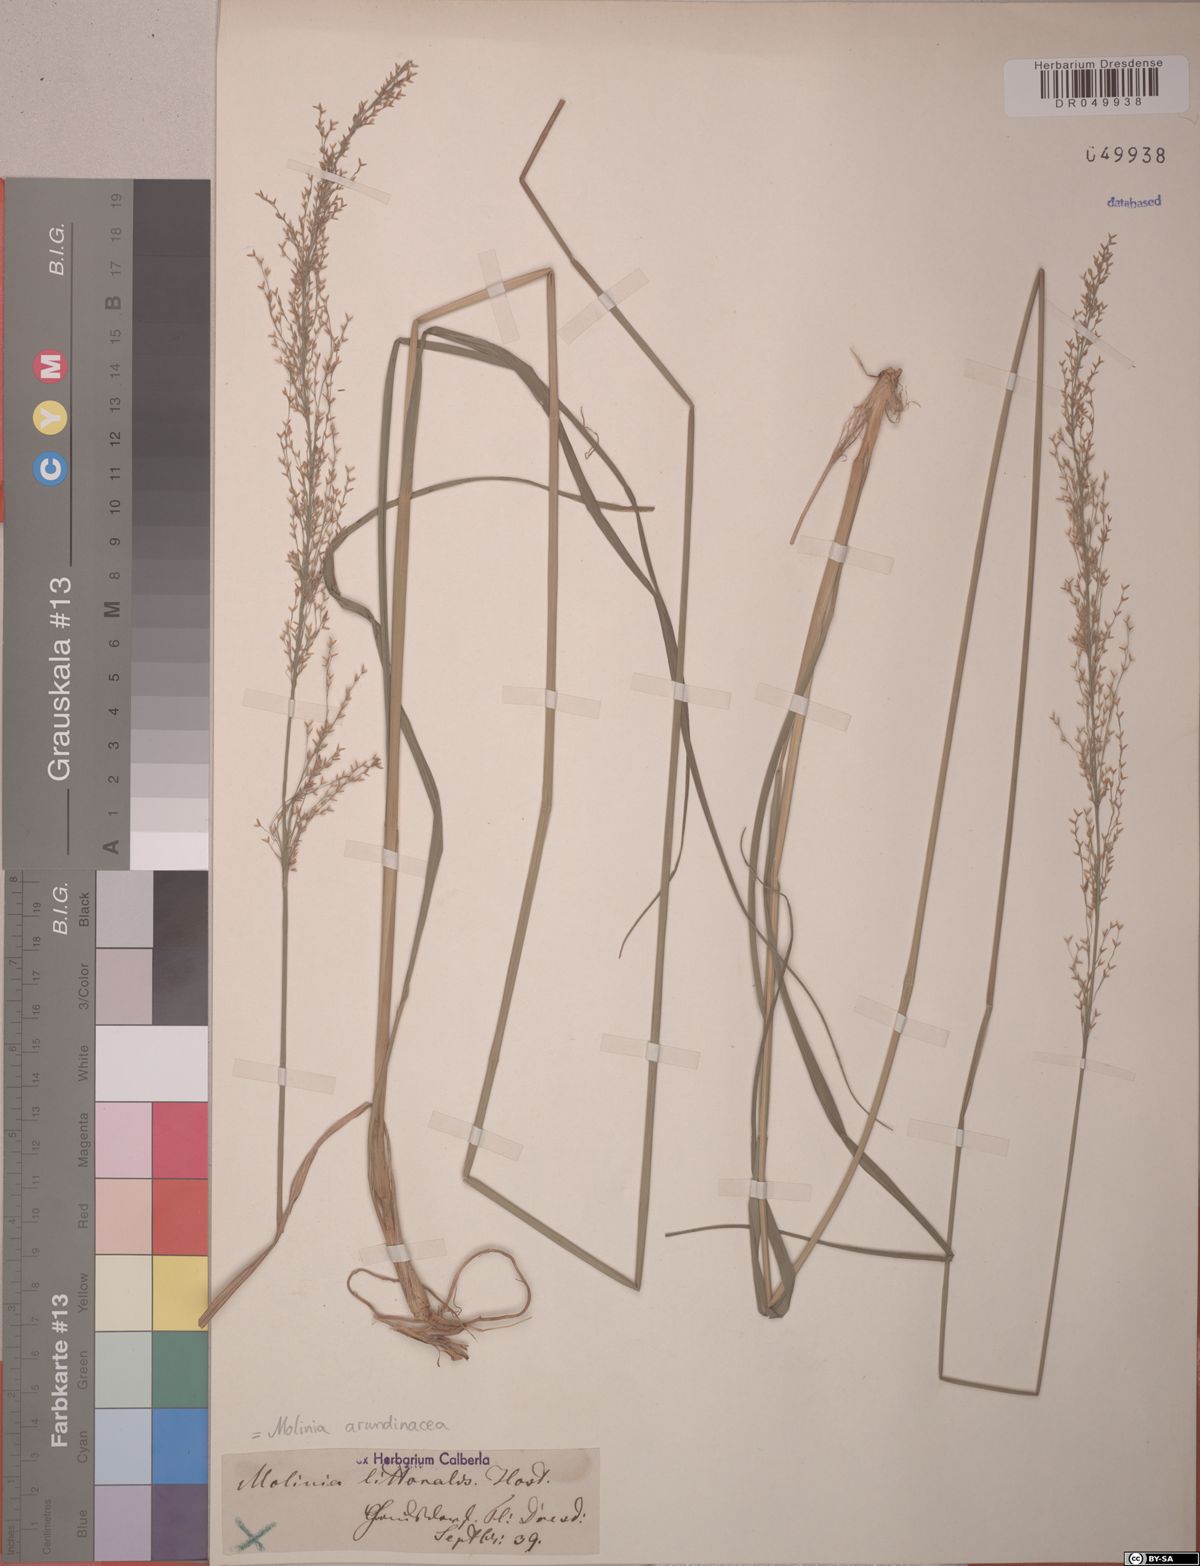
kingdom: Plantae
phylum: Tracheophyta
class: Liliopsida
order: Poales
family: Poaceae
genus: Molinia
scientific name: Molinia arundinacea
